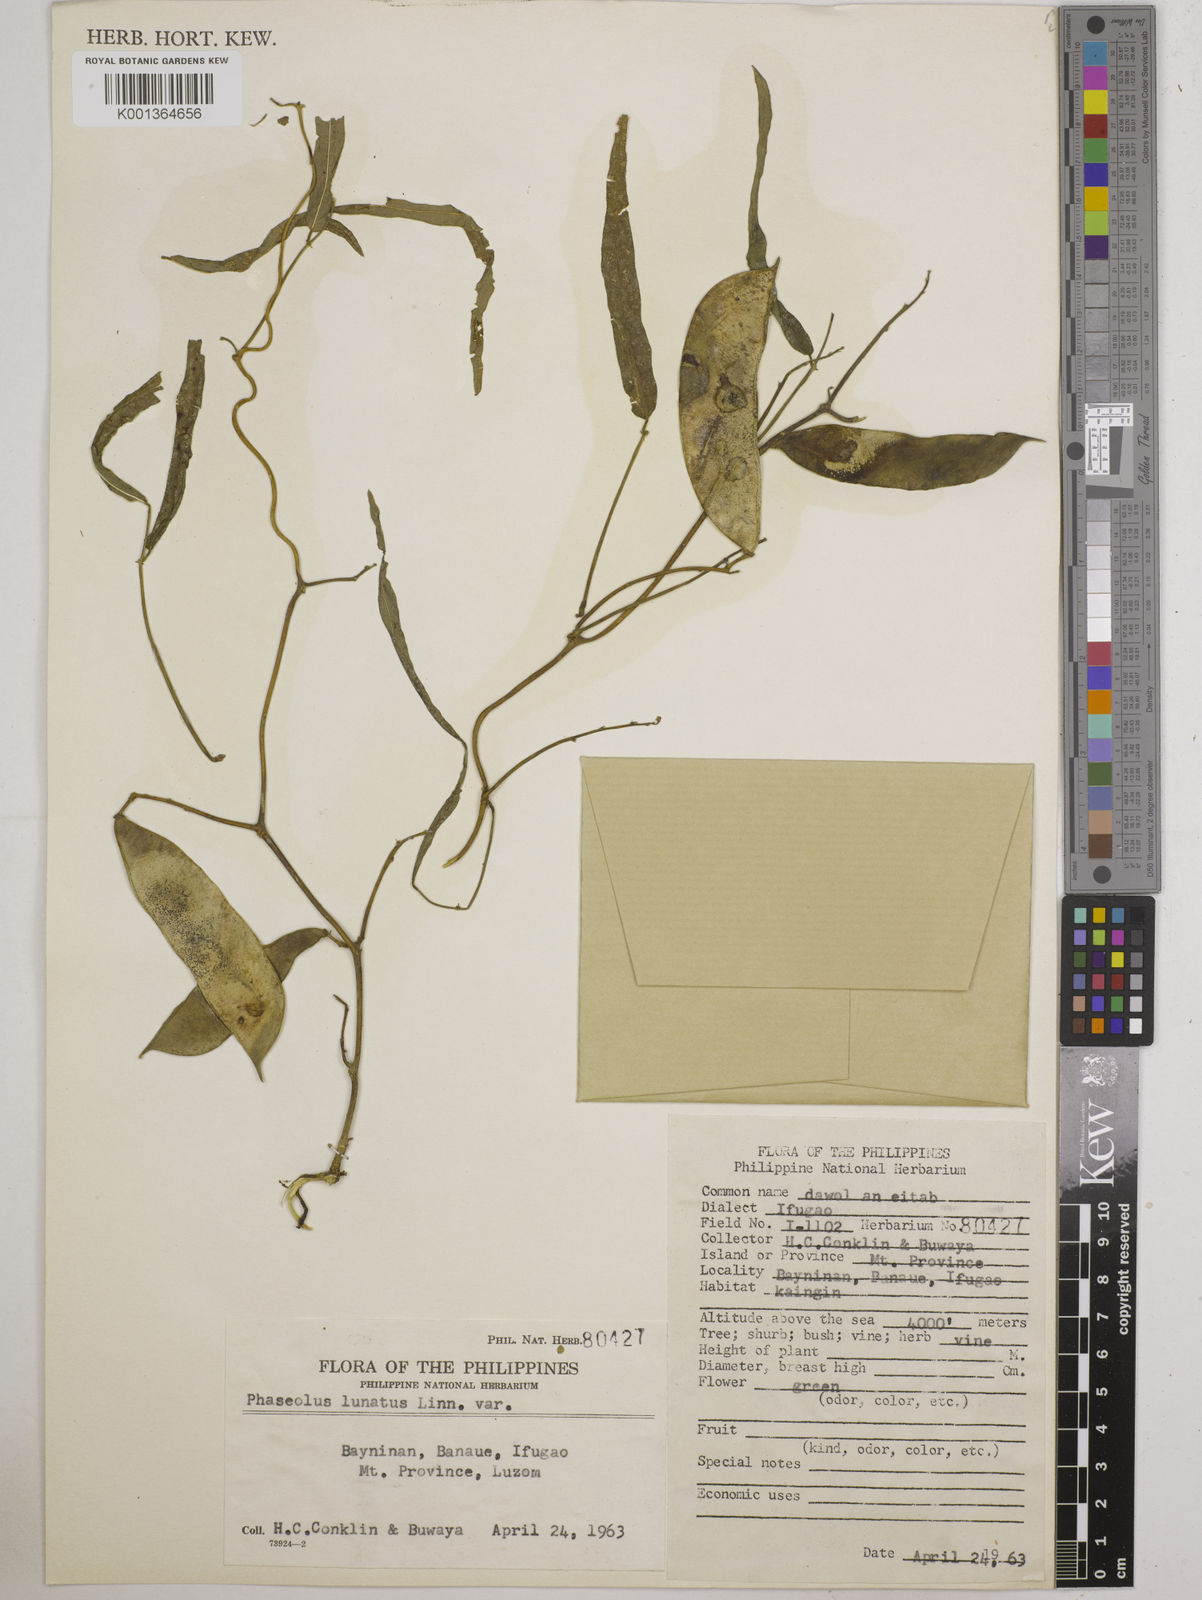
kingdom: Plantae
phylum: Tracheophyta
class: Magnoliopsida
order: Fabales
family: Fabaceae
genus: Phaseolus
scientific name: Phaseolus lunatus
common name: Sieva bean
